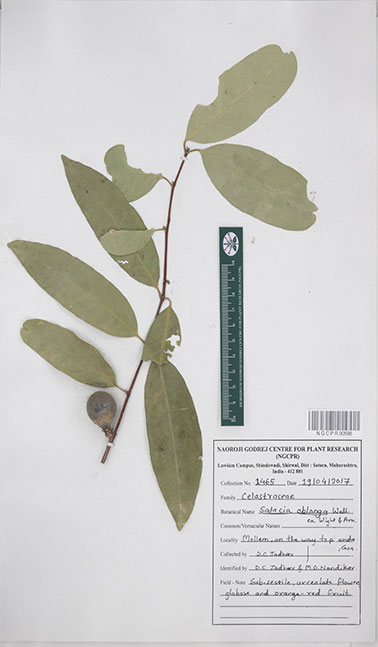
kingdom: Plantae
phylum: Tracheophyta
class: Magnoliopsida
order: Celastrales
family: Celastraceae
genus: Salacia
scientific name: Salacia oblonga
